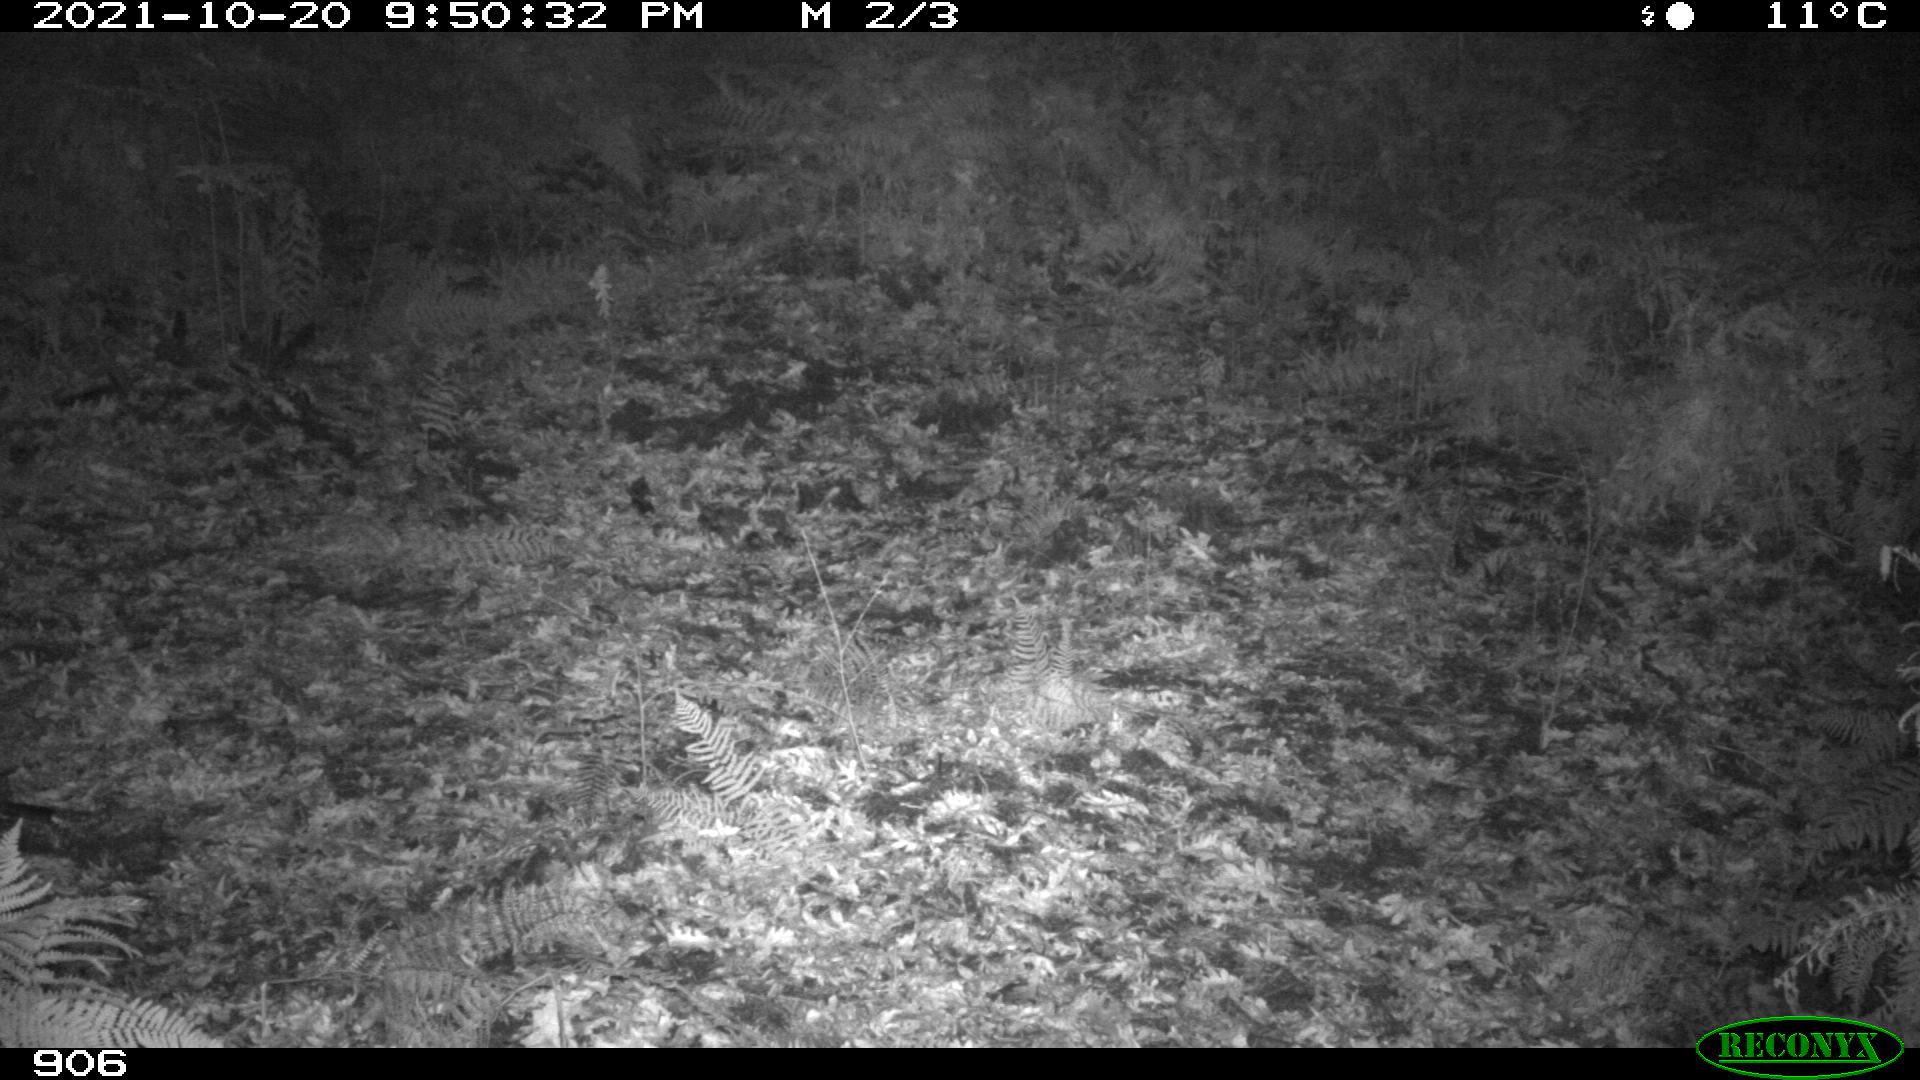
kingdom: Animalia
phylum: Chordata
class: Mammalia
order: Artiodactyla
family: Suidae
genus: Sus
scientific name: Sus scrofa
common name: Wild boar
